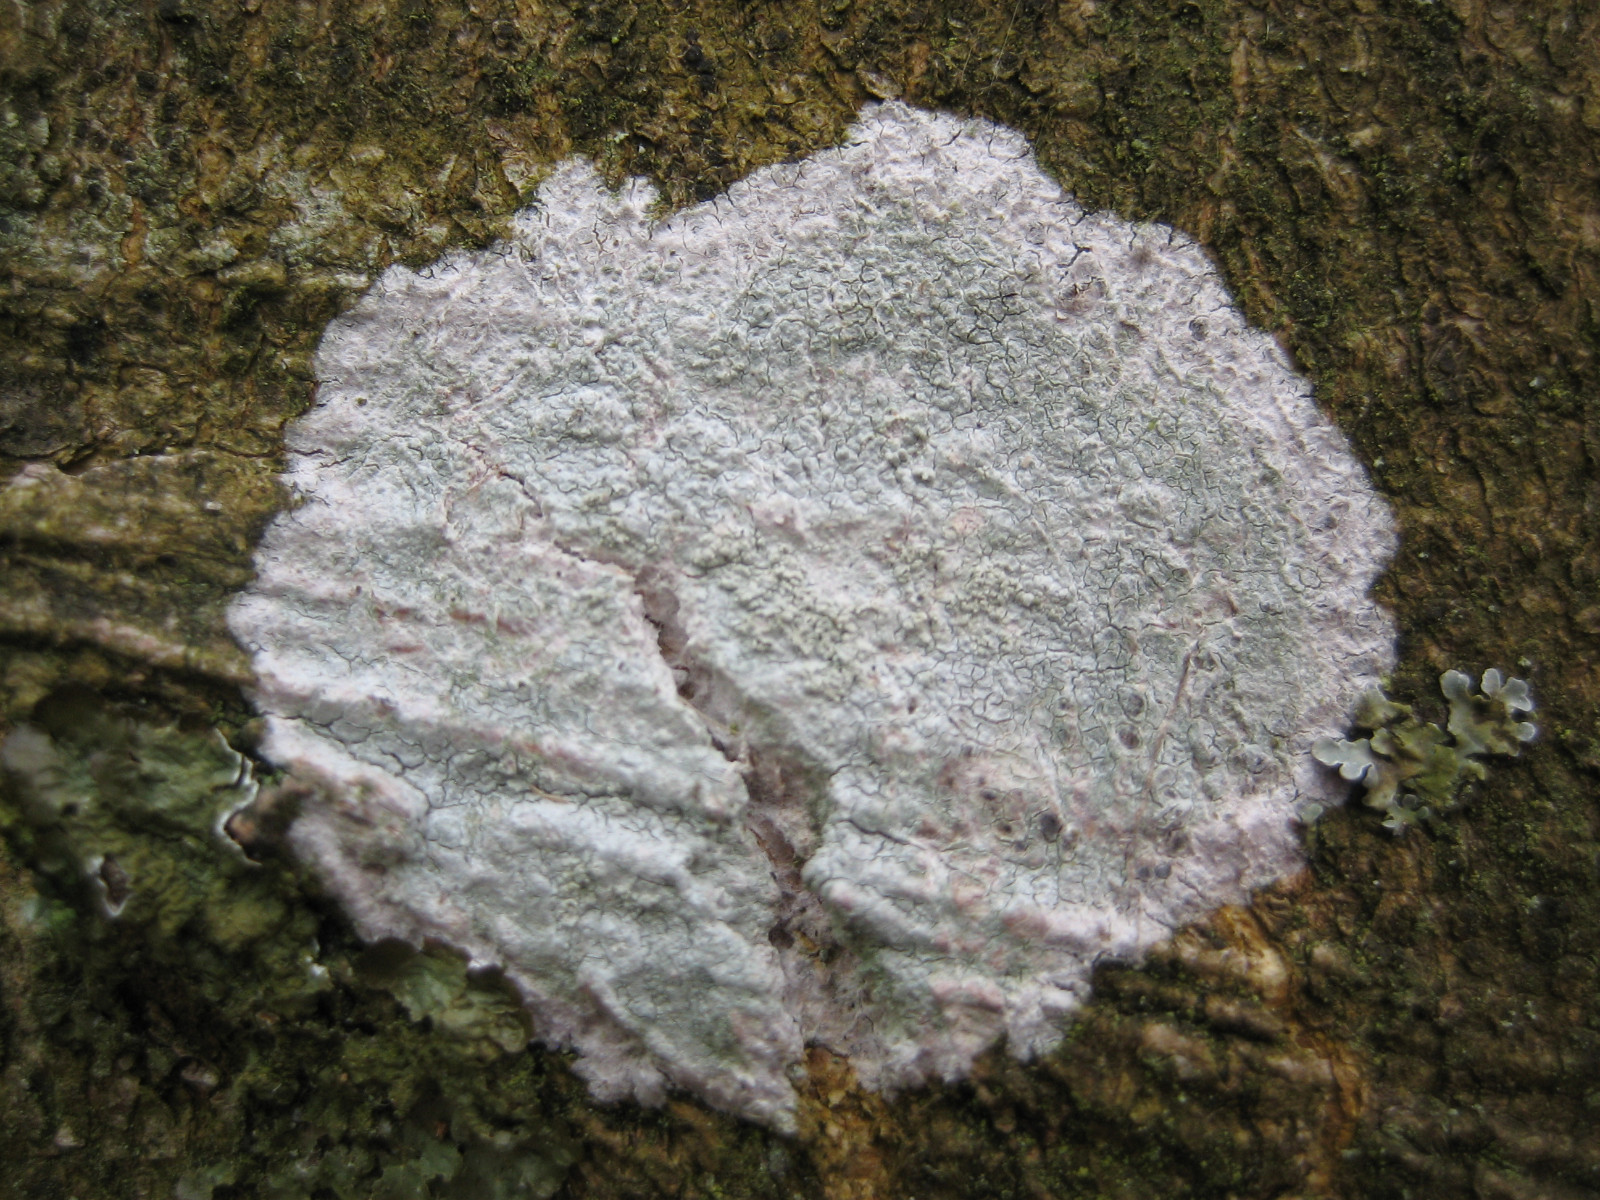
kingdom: Fungi
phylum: Ascomycota
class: Lecanoromycetes
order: Ostropales
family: Phlyctidaceae
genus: Phlyctis
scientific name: Phlyctis argena
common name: almindelig sølvlav
